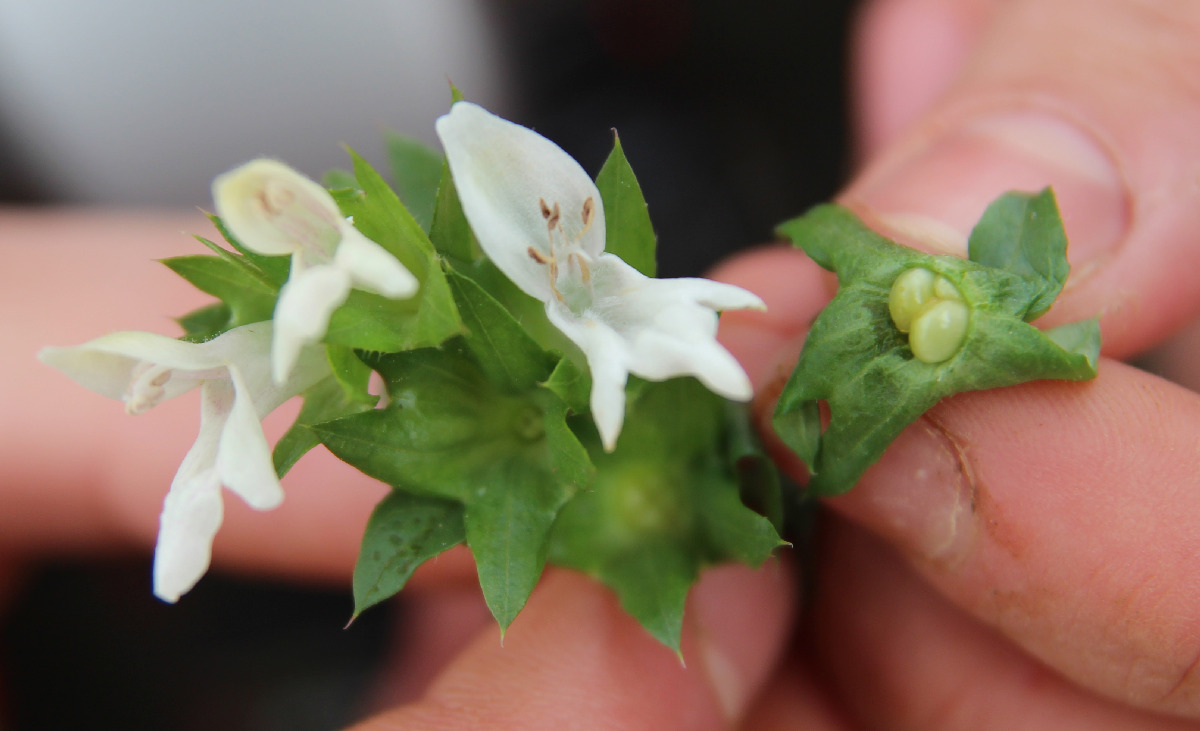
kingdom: Plantae
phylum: Tracheophyta
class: Magnoliopsida
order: Lamiales
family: Lamiaceae
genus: Prasium
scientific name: Prasium majus
